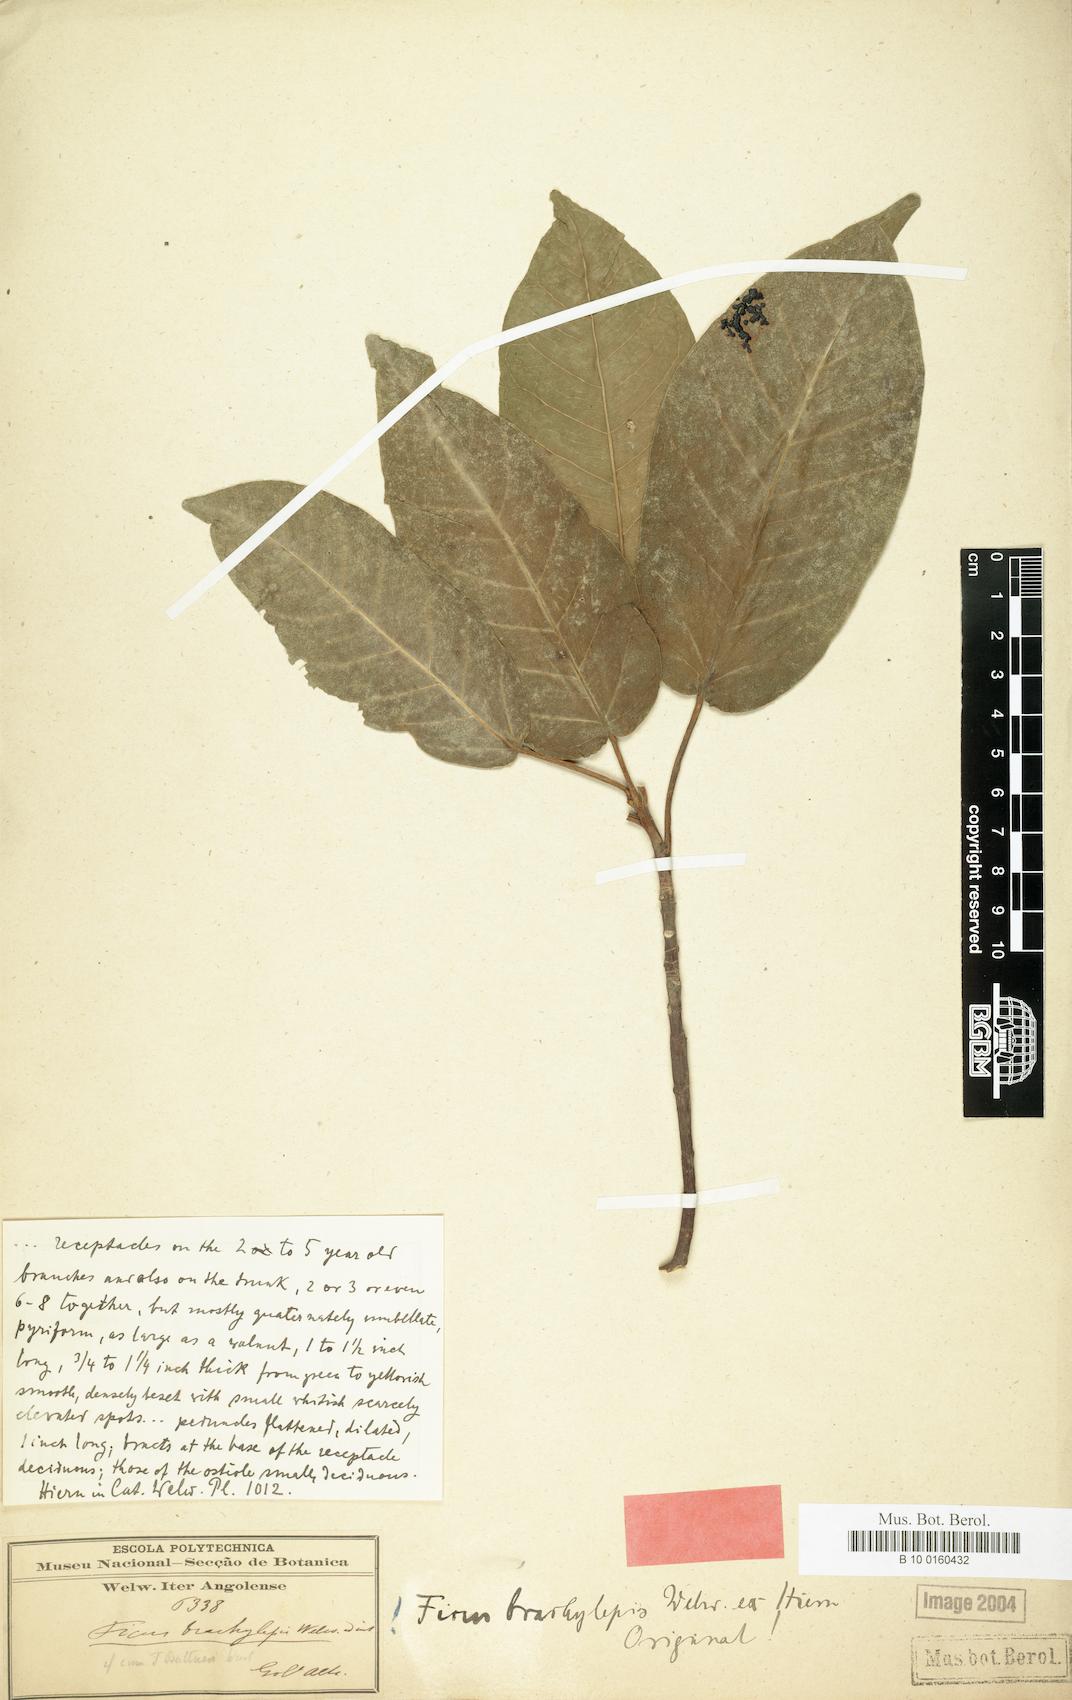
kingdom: Plantae
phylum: Tracheophyta
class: Magnoliopsida
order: Rosales
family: Moraceae
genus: Ficus
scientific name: Ficus sansibarica
